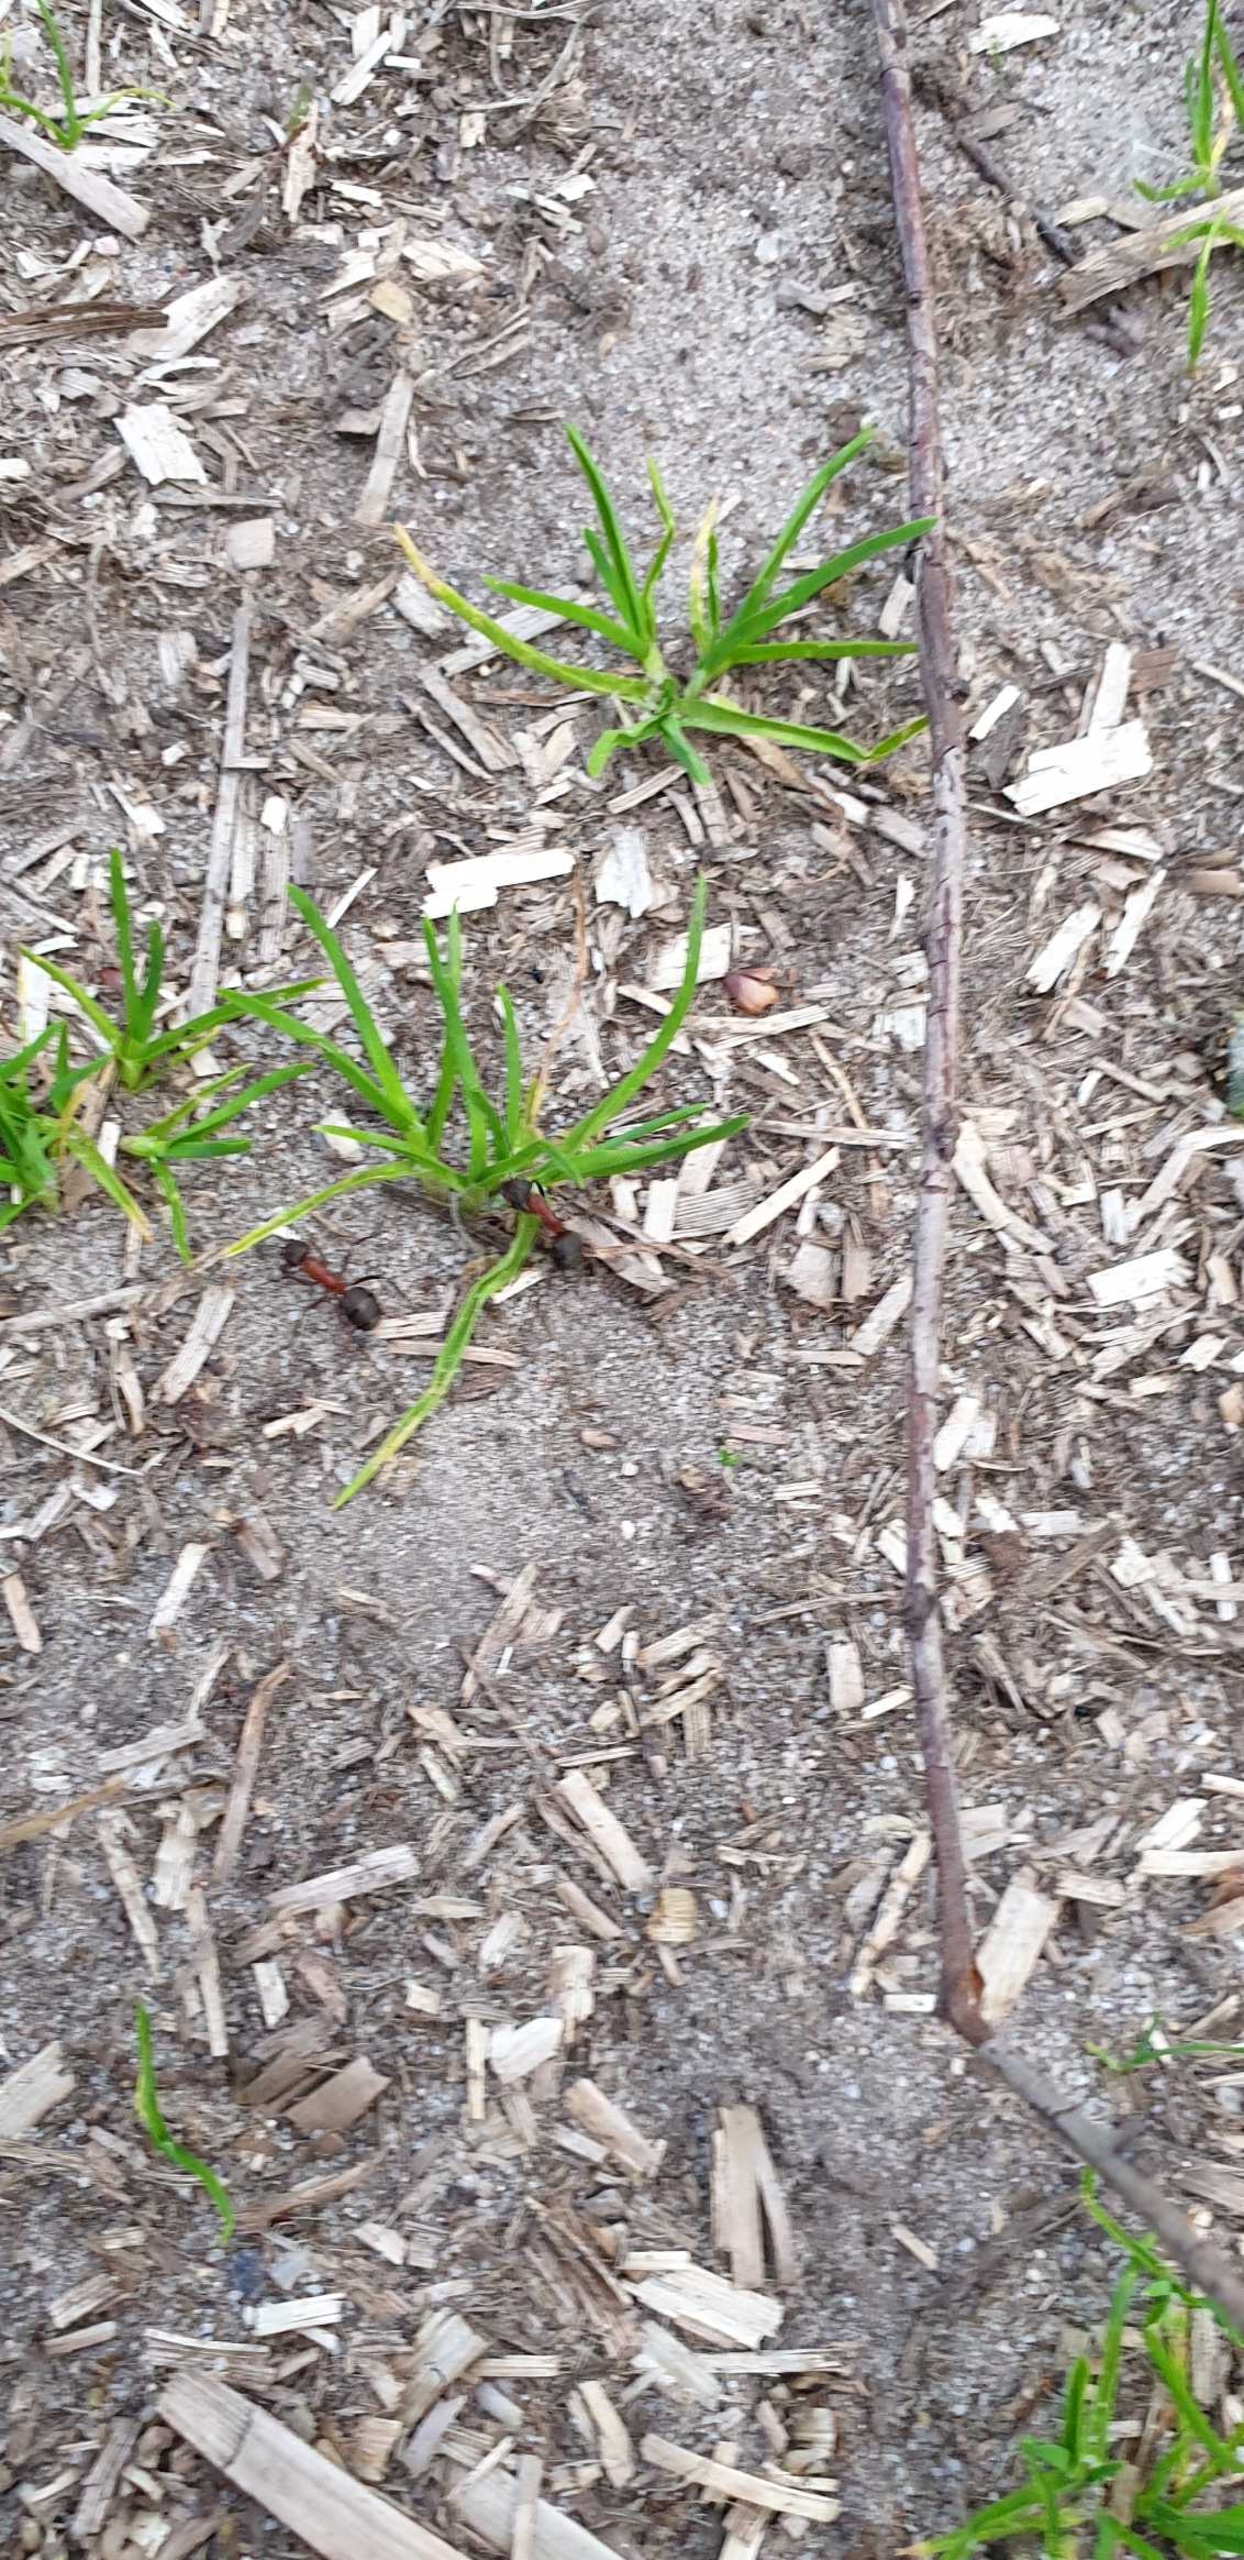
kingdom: Animalia
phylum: Arthropoda
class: Insecta
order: Hymenoptera
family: Formicidae
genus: Formica
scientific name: Formica
